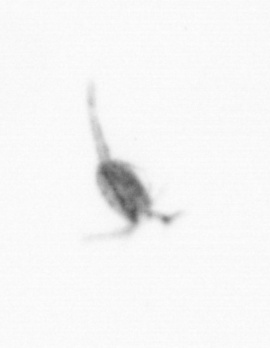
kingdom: Animalia
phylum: Arthropoda
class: Copepoda
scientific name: Copepoda
